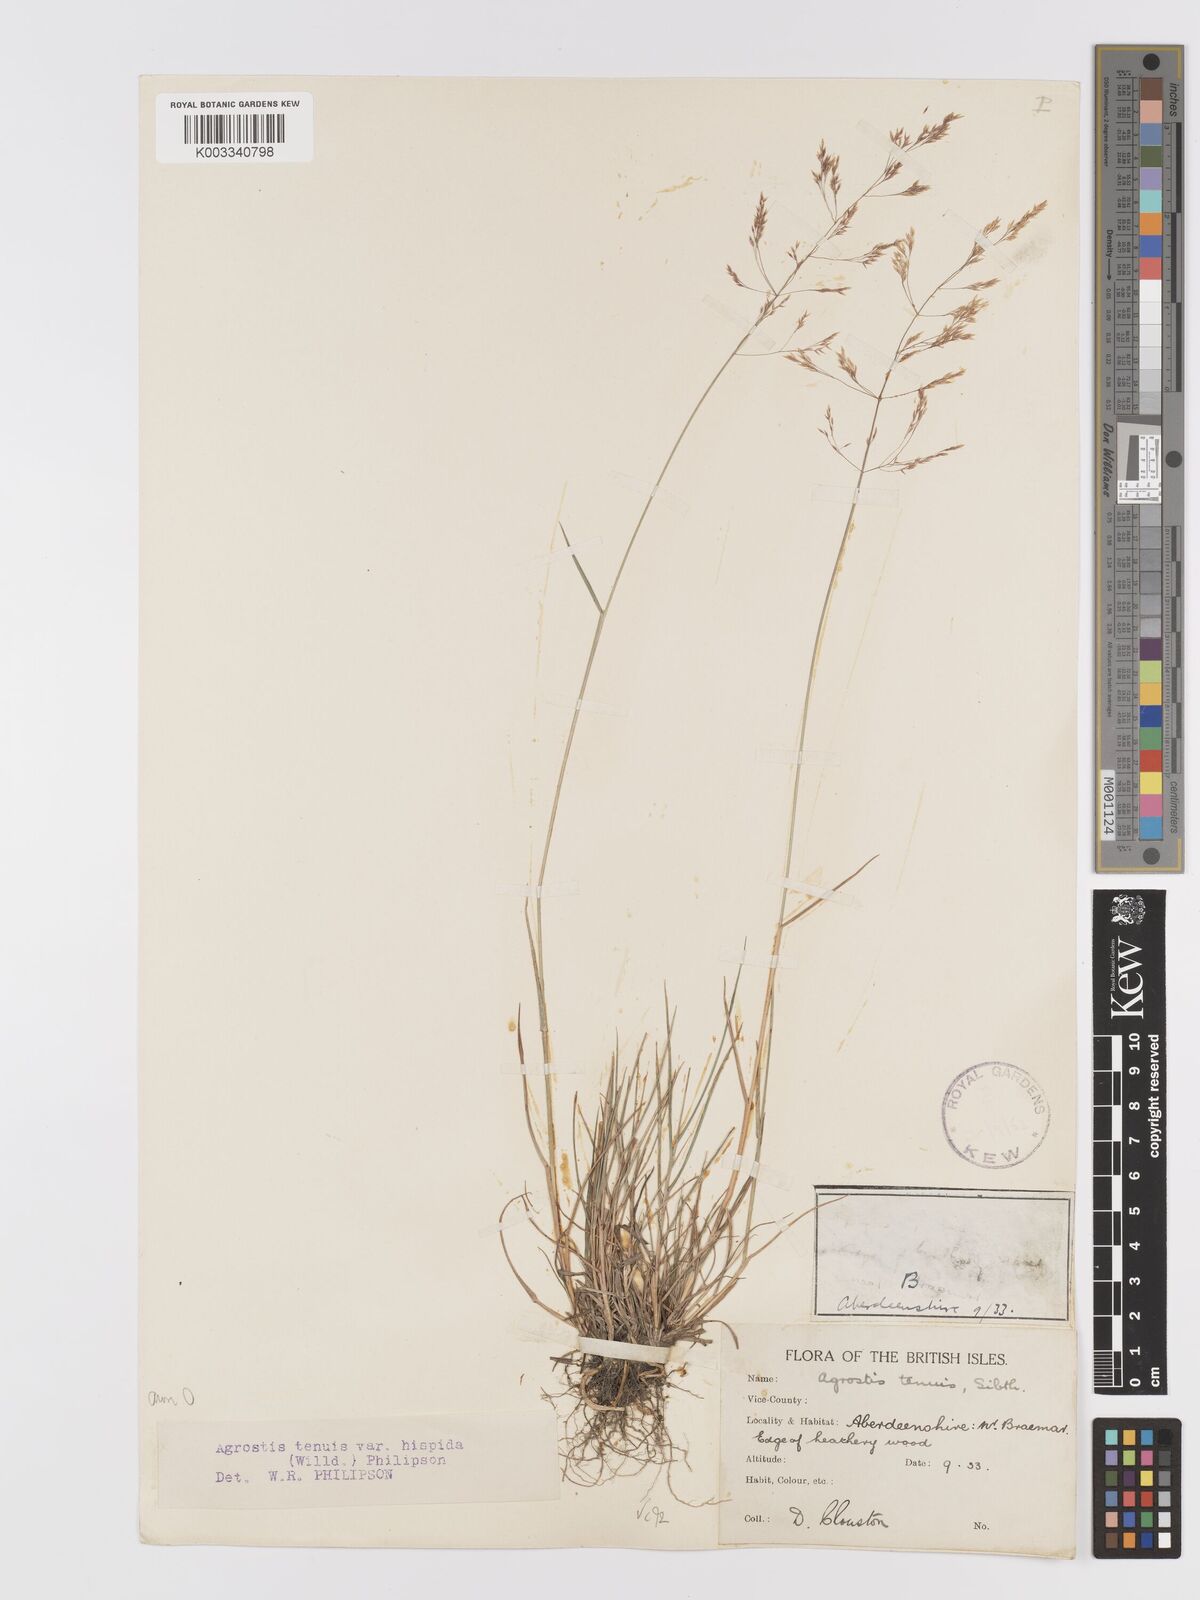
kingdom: Plantae
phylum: Tracheophyta
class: Liliopsida
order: Poales
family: Poaceae
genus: Agrostis
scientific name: Agrostis capillaris
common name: Colonial bentgrass
